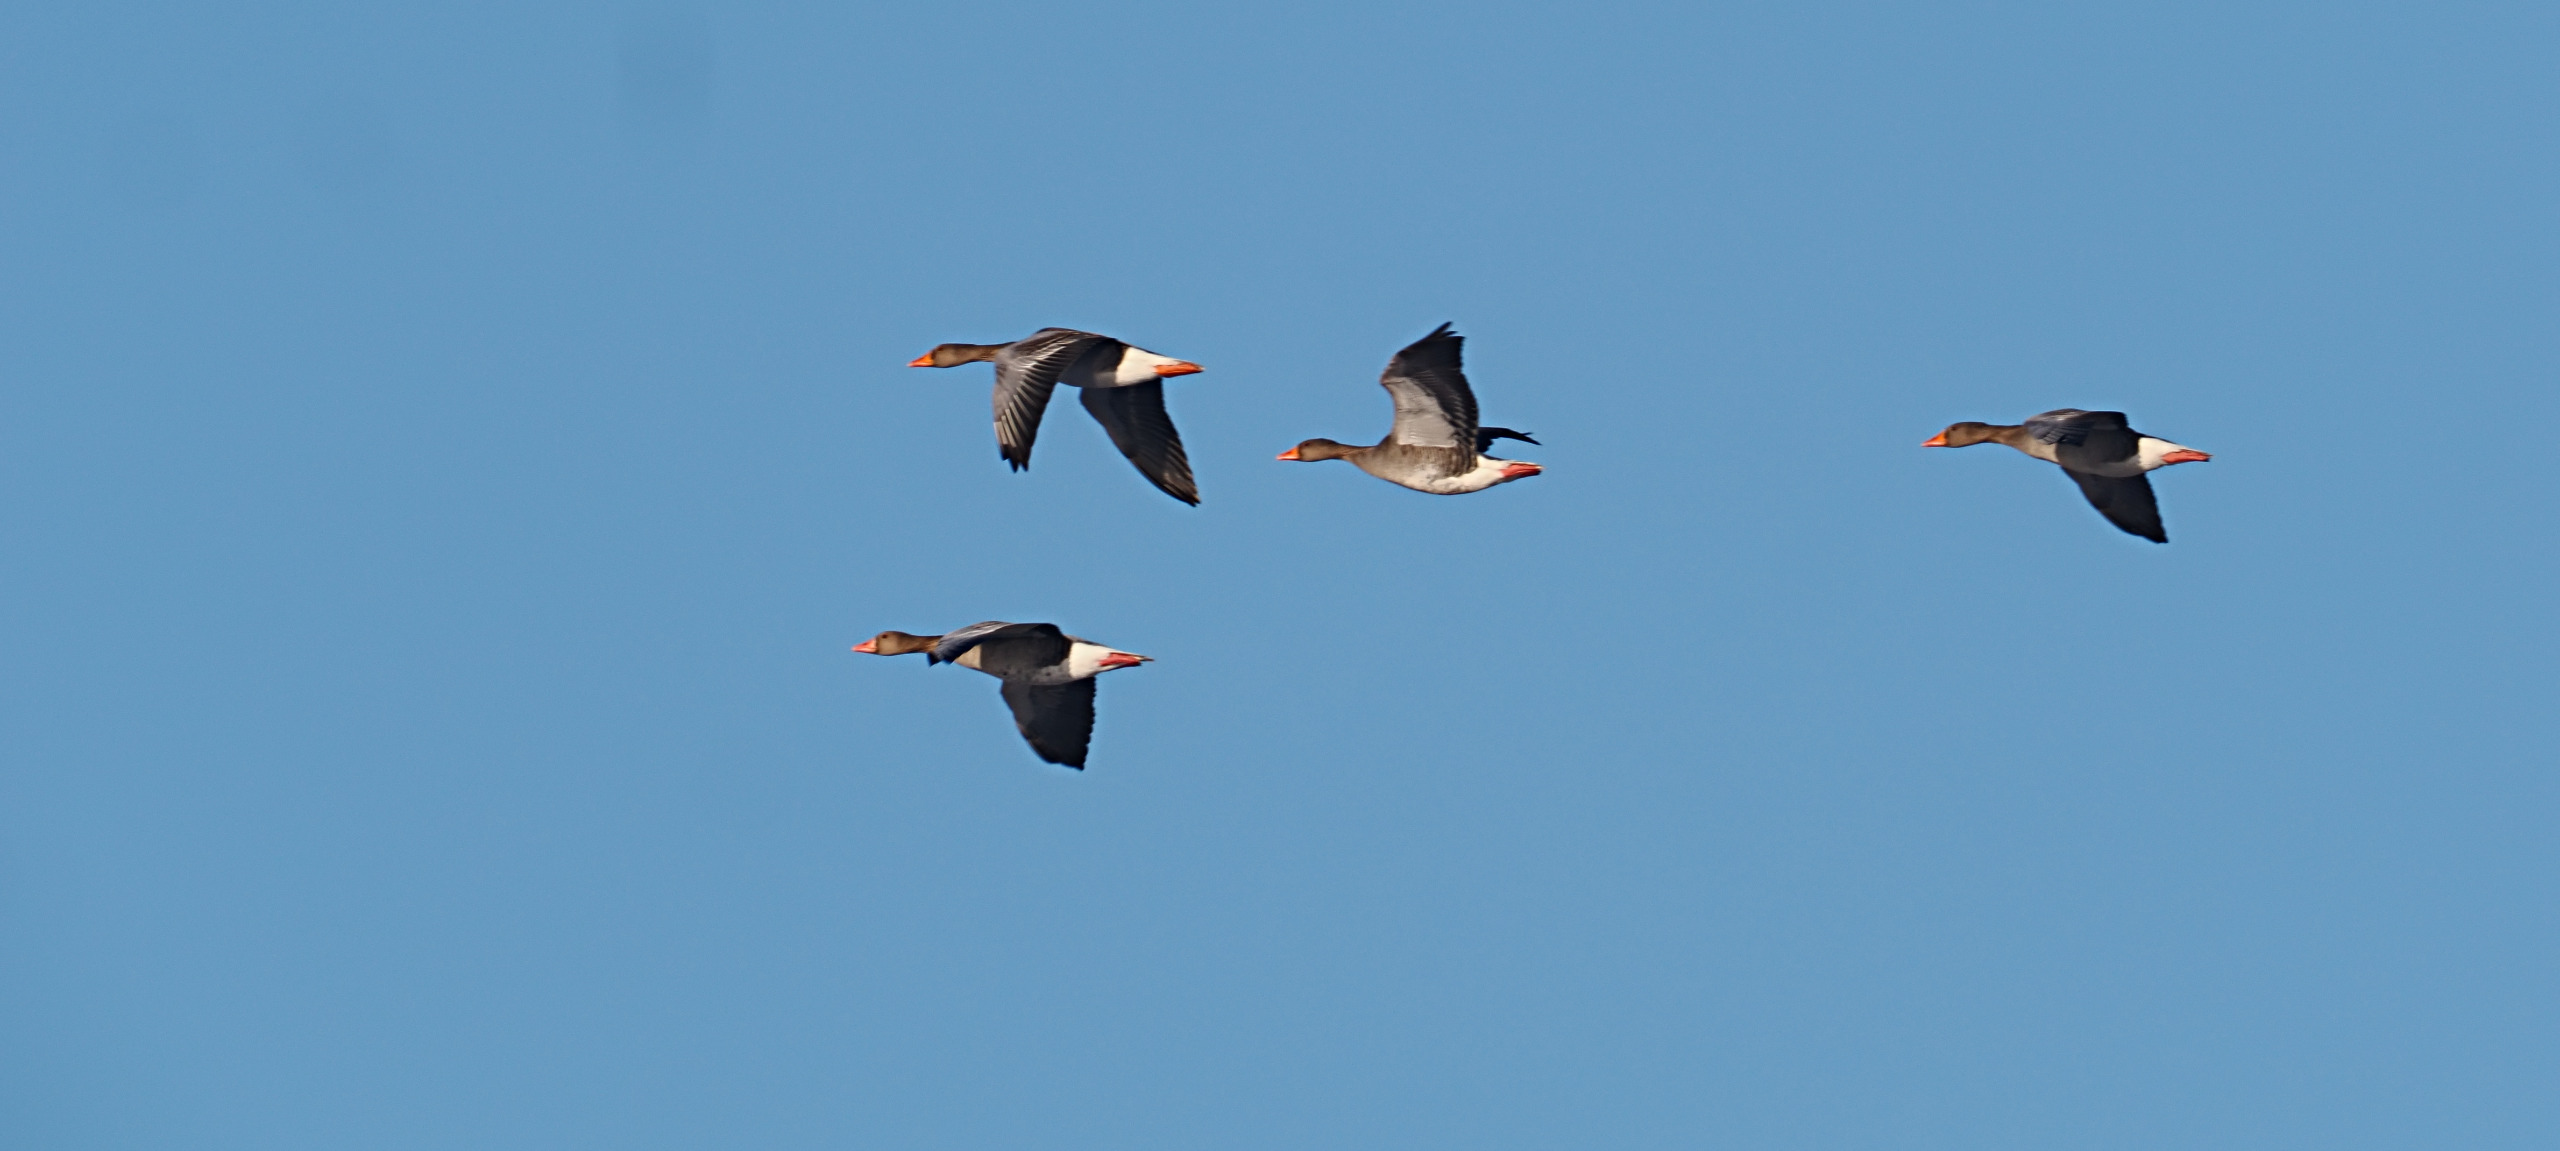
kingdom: Animalia
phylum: Chordata
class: Aves
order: Anseriformes
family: Anatidae
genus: Anser
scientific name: Anser anser
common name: Grågås
